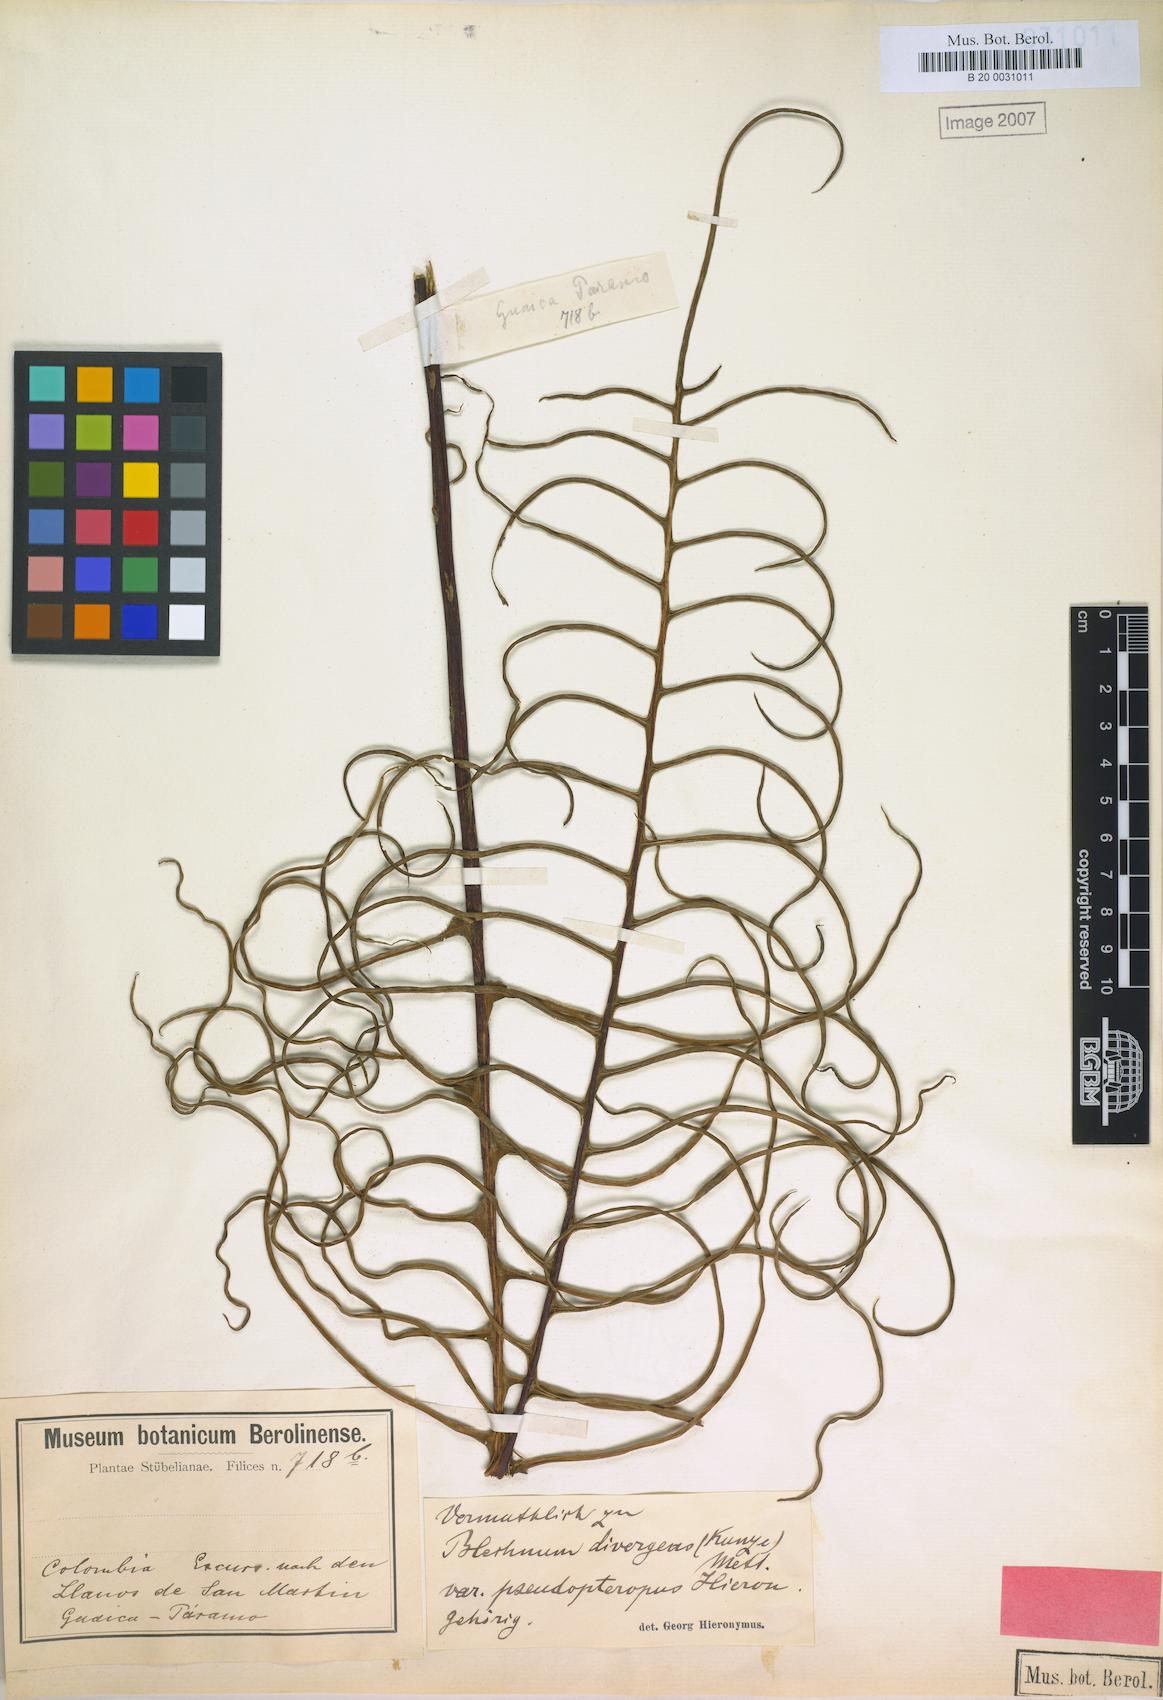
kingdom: Plantae
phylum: Tracheophyta
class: Polypodiopsida
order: Polypodiales
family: Blechnaceae
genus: Austroblechnum
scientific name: Austroblechnum divergens
